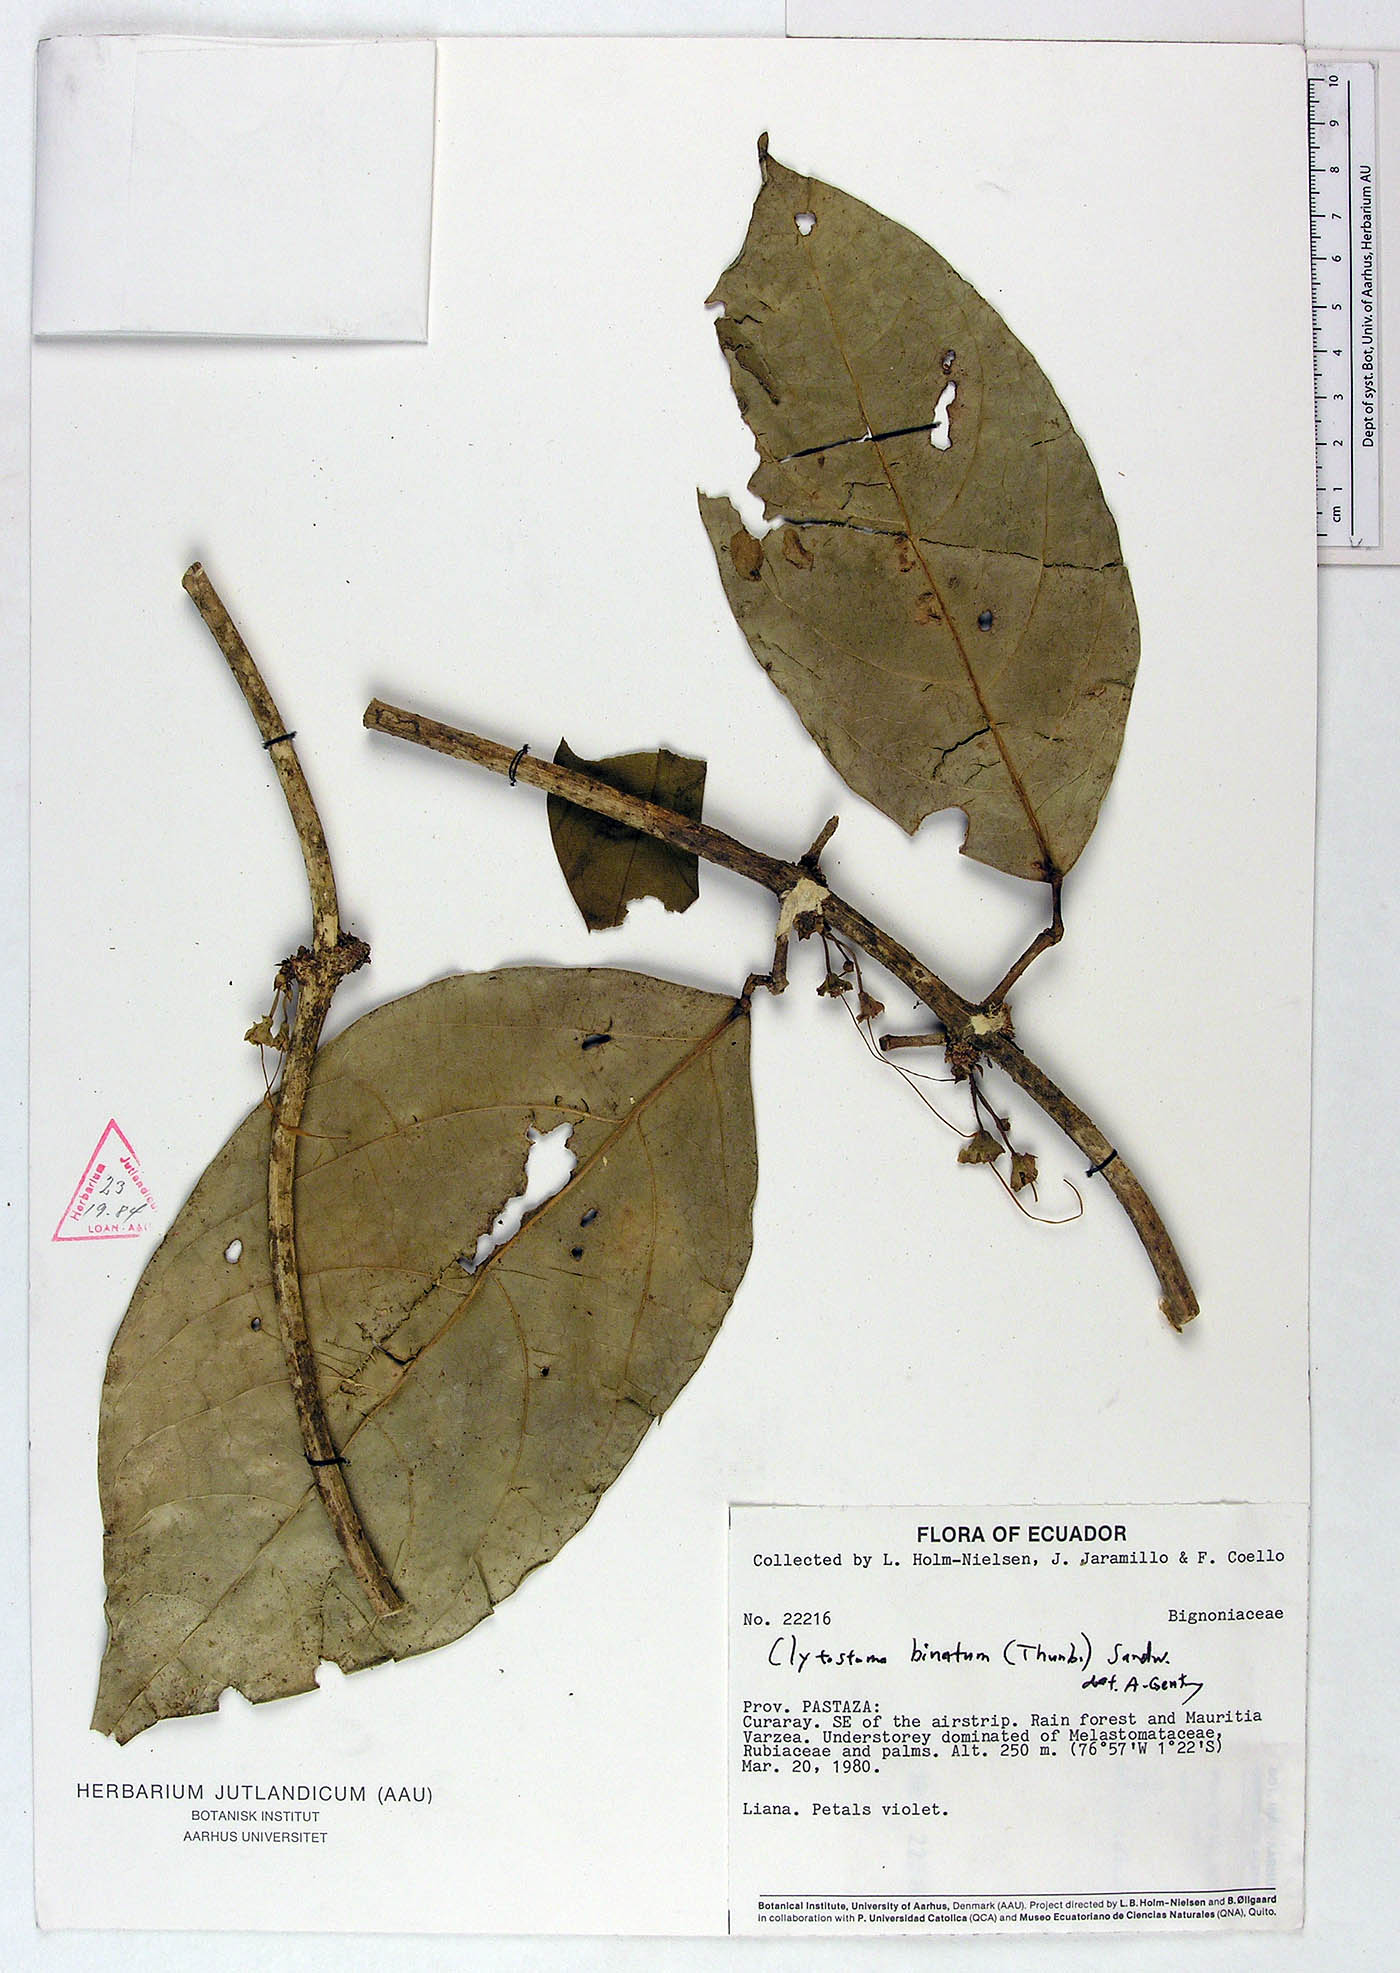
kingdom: Plantae
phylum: Tracheophyta
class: Magnoliopsida
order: Lamiales
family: Bignoniaceae
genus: Bignonia
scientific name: Bignonia binata
